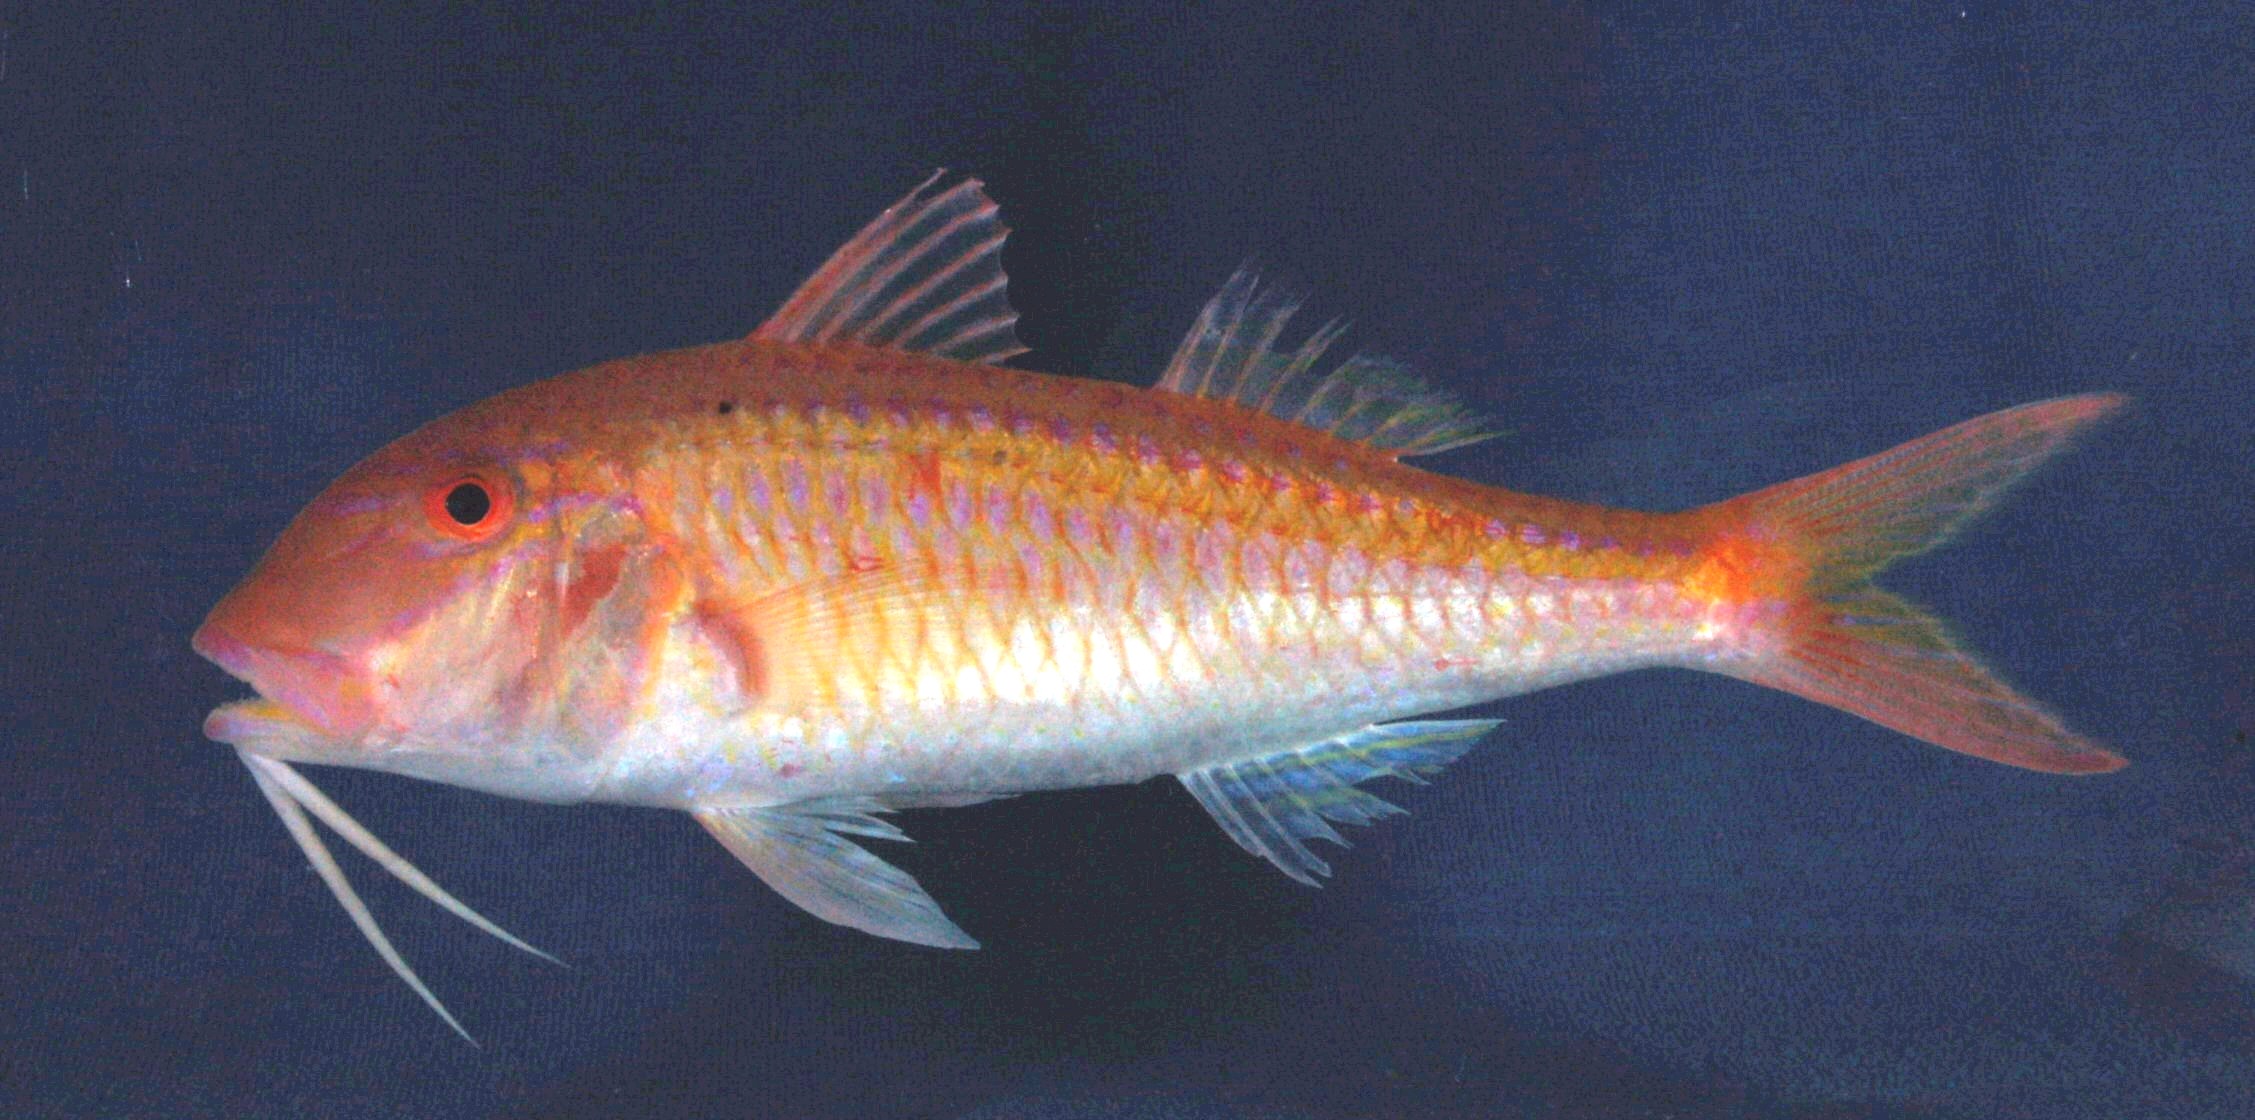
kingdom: Animalia
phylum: Chordata
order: Perciformes
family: Mullidae
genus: Parupeneus
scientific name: Parupeneus heptacanthus
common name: Cinnabar goatfish
